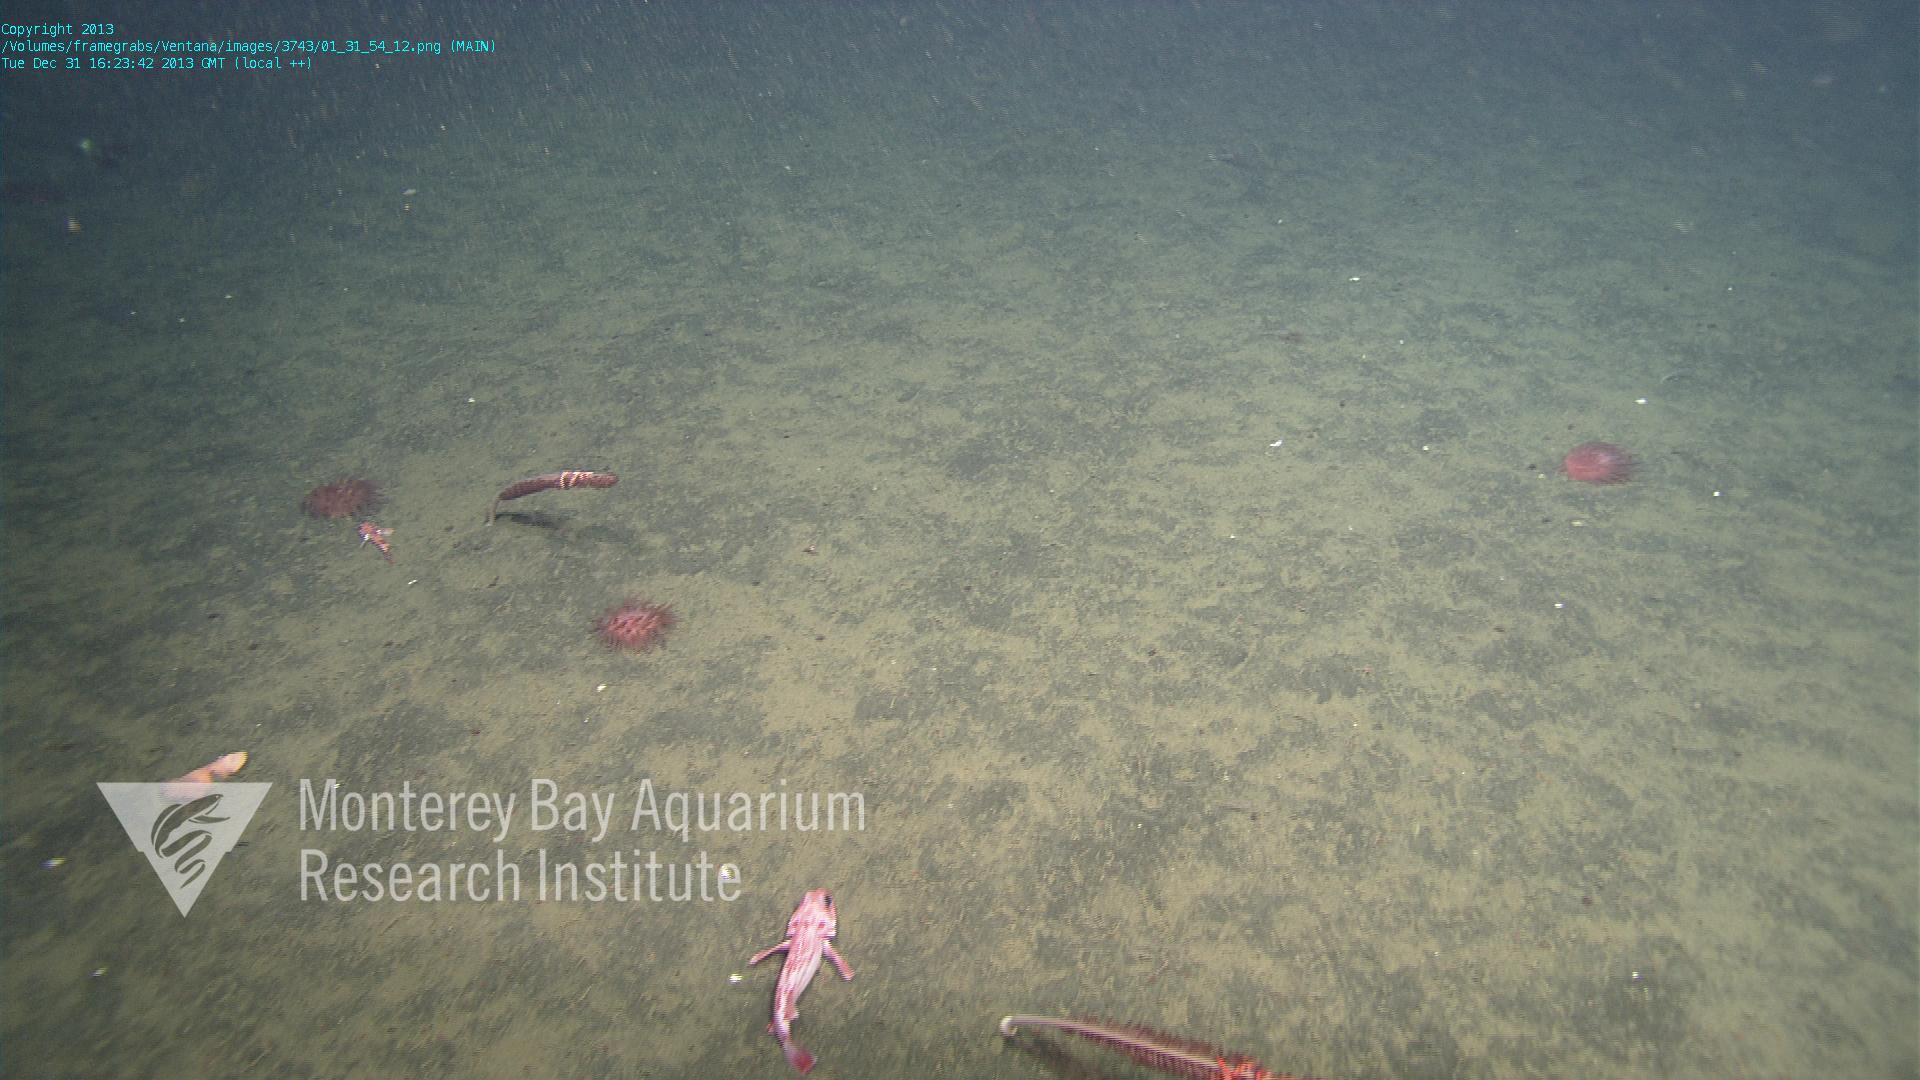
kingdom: Animalia
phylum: Cnidaria
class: Anthozoa
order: Scleralcyonacea
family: Funiculinidae
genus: Funiculina
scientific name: Funiculina
